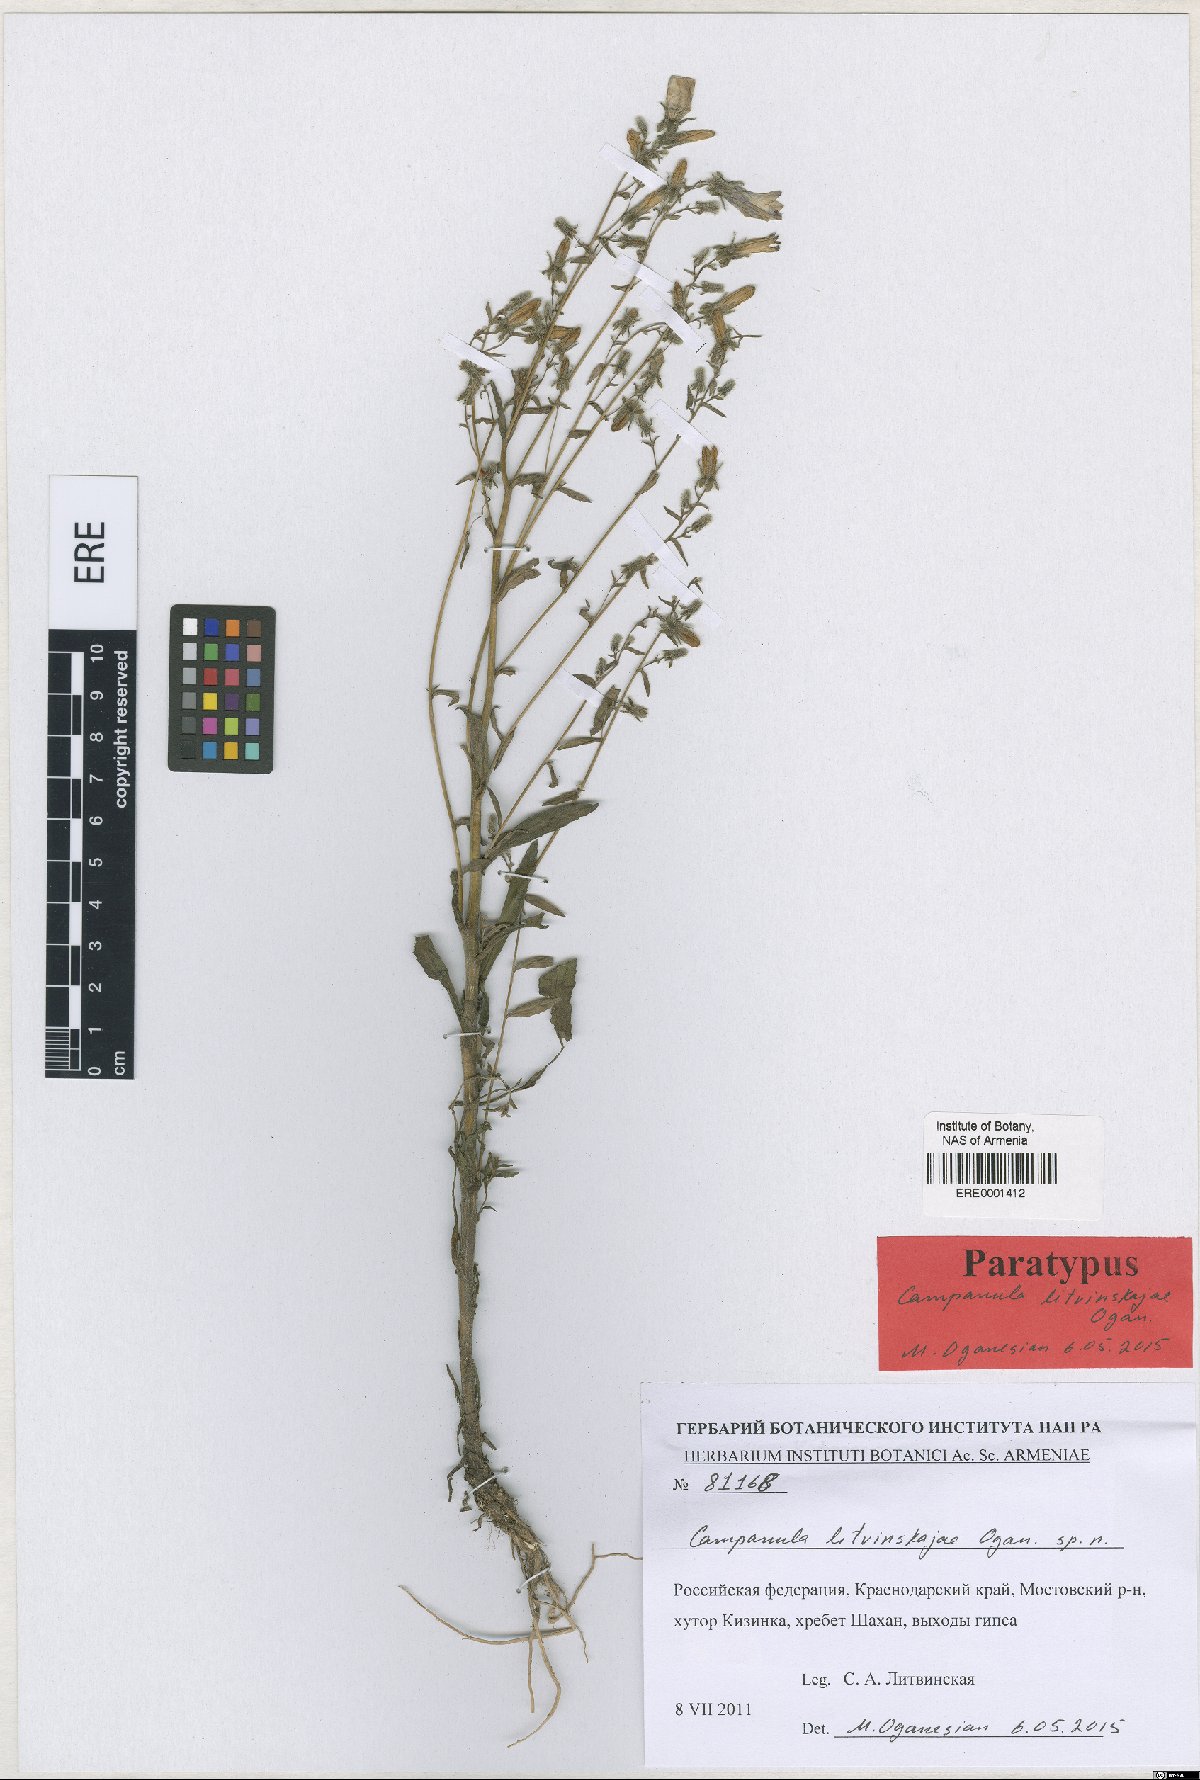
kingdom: Plantae
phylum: Tracheophyta
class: Magnoliopsida
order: Asterales
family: Campanulaceae
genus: Campanula
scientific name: Campanula litvinskajae
